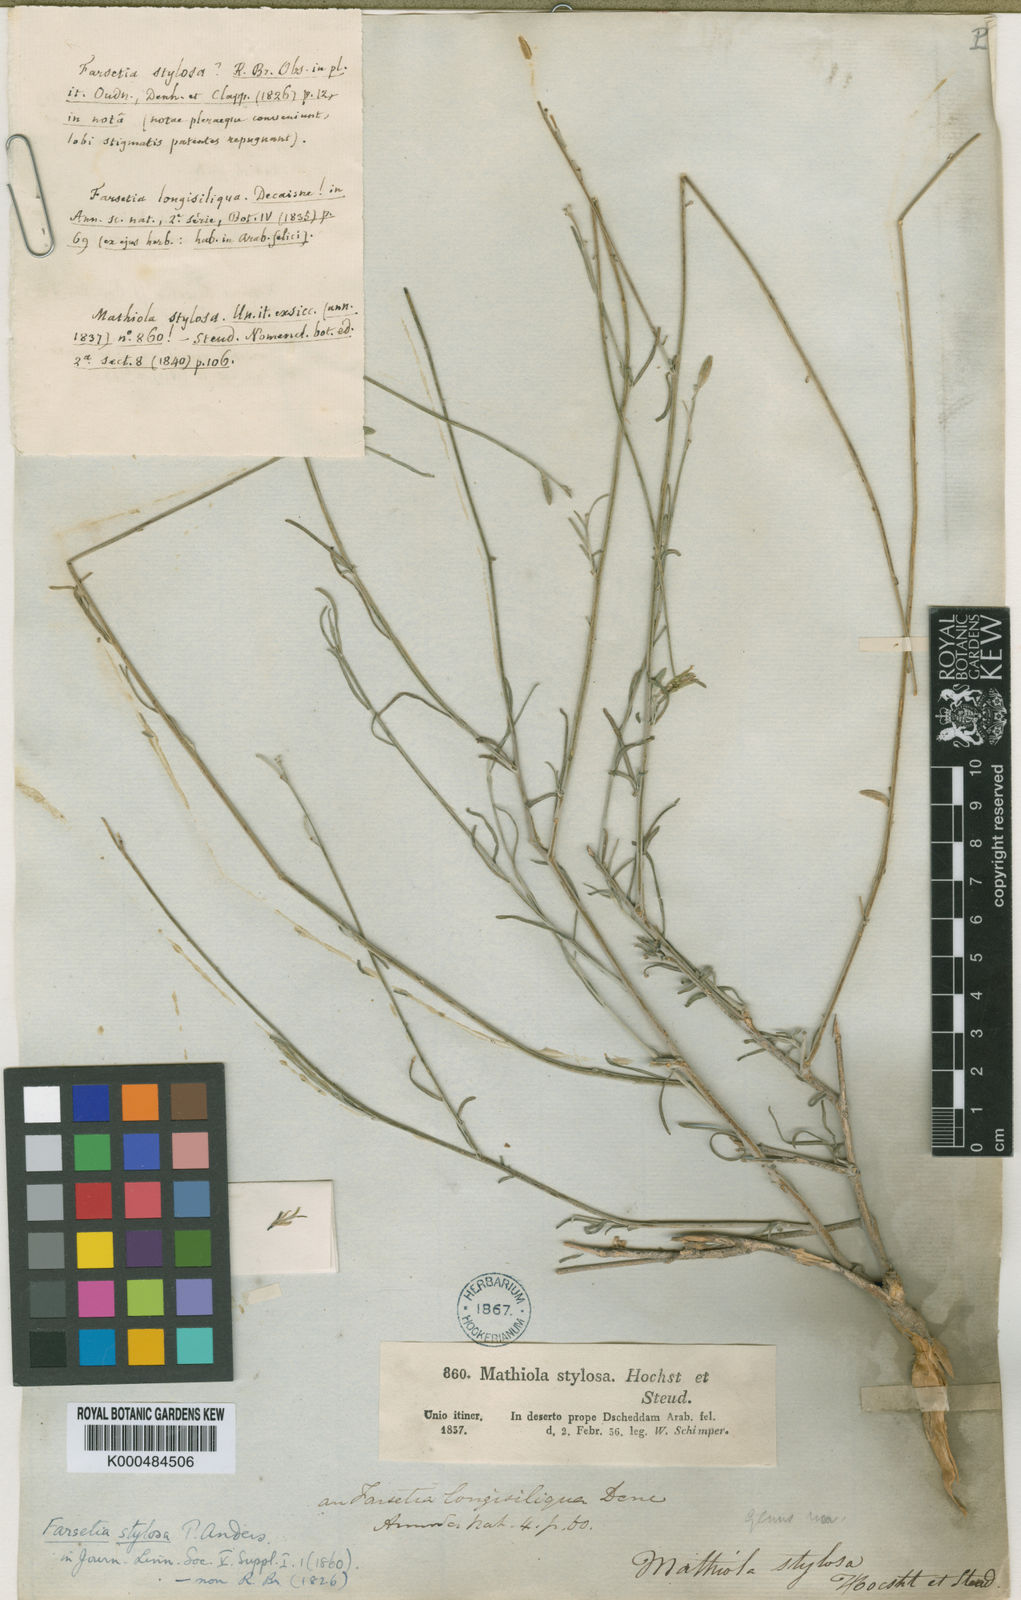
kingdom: Plantae
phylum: Tracheophyta
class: Magnoliopsida
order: Brassicales
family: Brassicaceae
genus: Farsetia
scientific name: Farsetia longisiliqua
